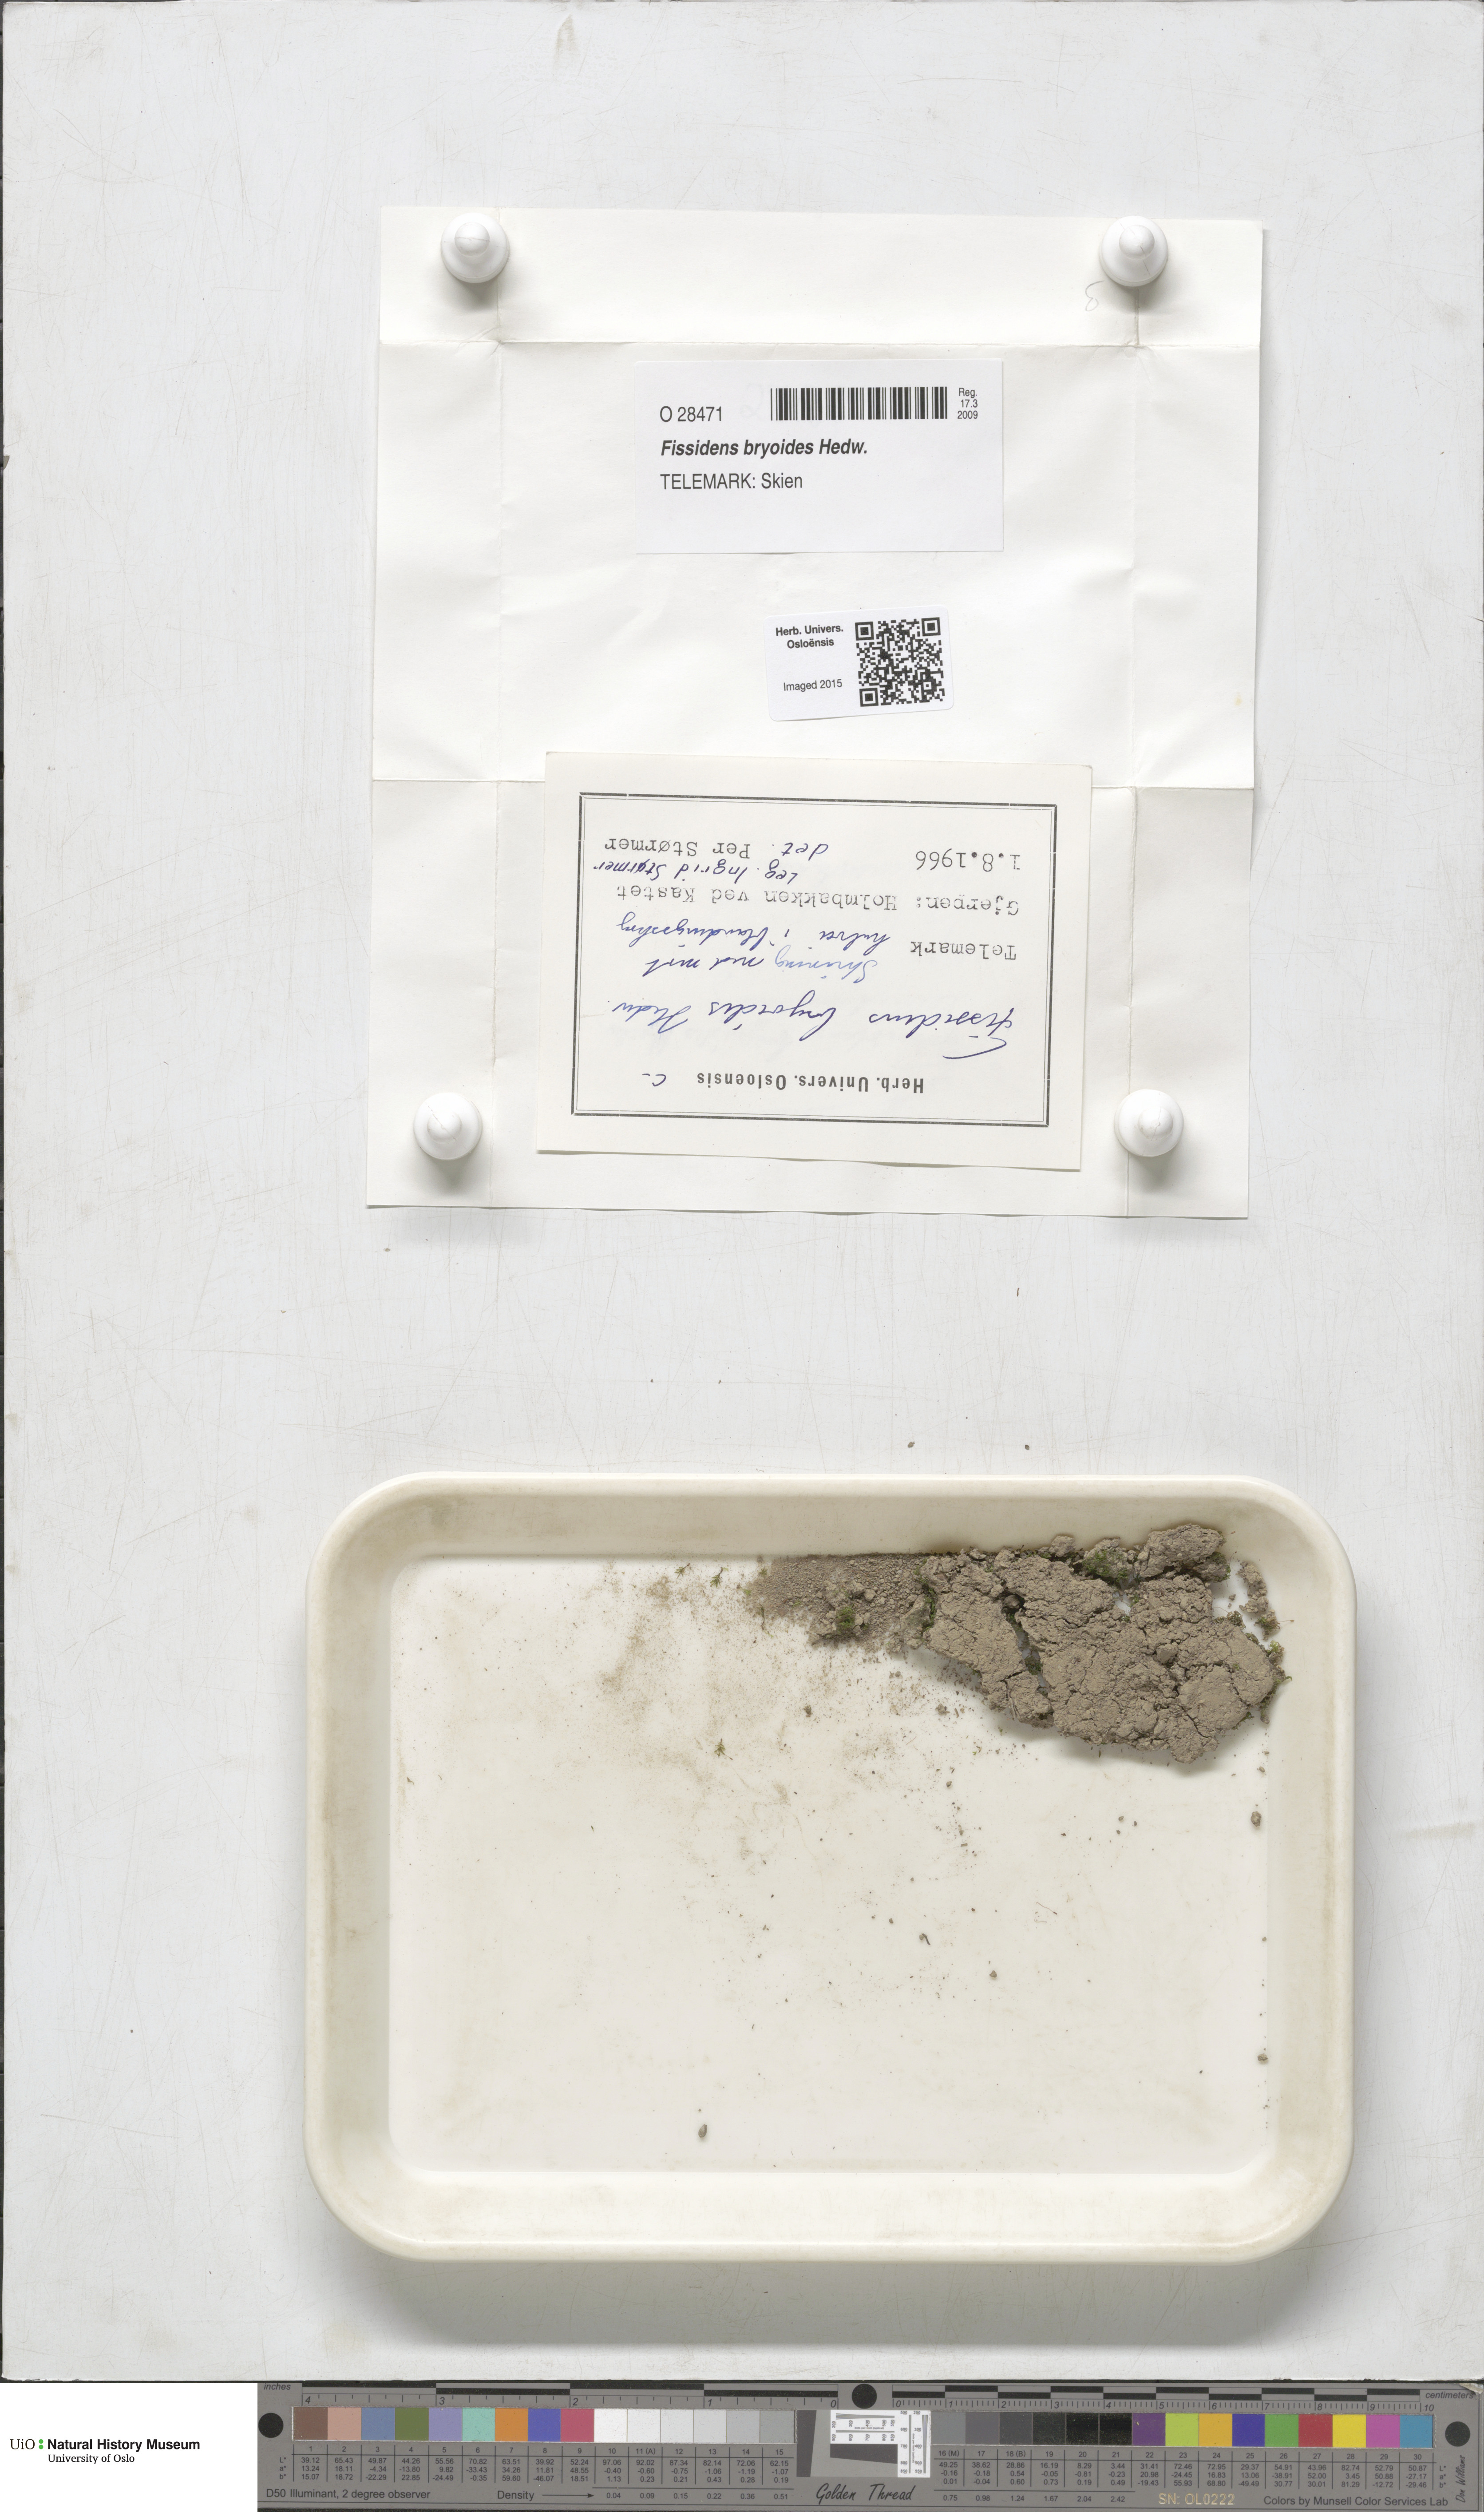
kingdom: Plantae
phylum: Bryophyta
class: Bryopsida
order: Dicranales
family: Fissidentaceae
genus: Fissidens
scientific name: Fissidens bryoides
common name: Lesser pocket moss
